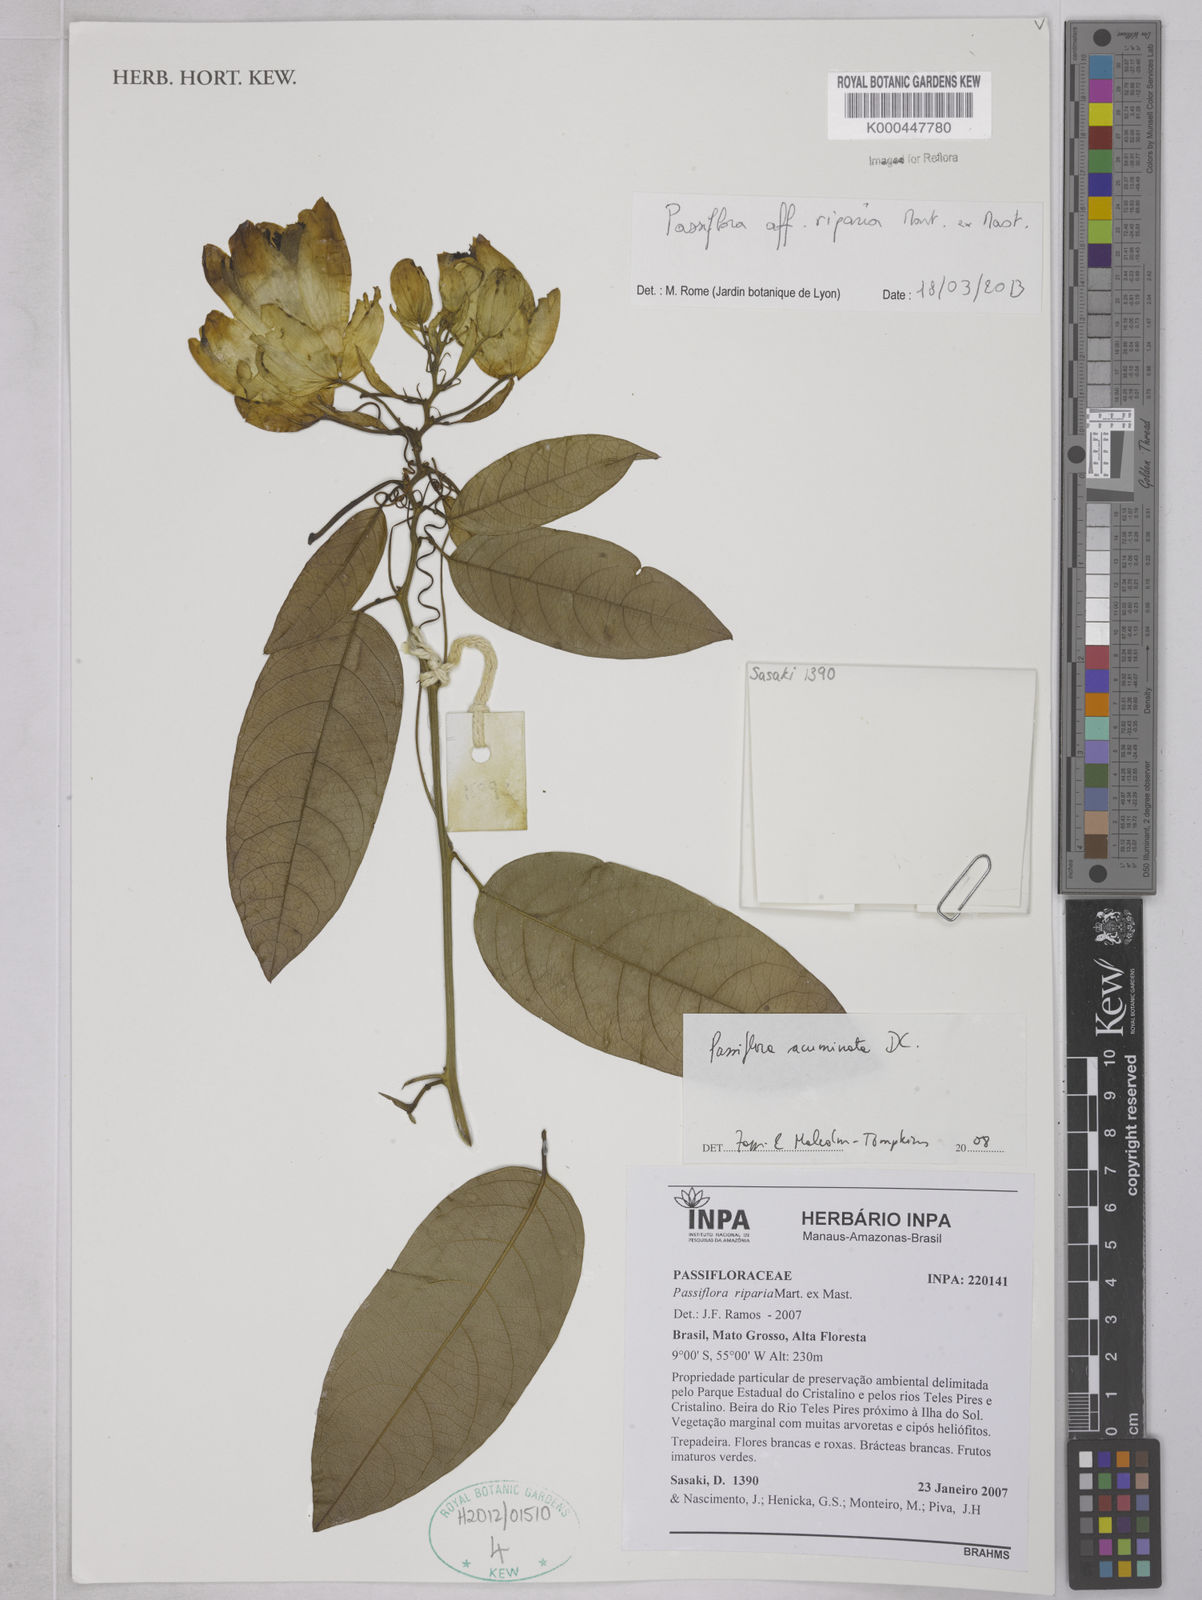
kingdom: Plantae
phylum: Tracheophyta
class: Magnoliopsida
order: Malpighiales
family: Passifloraceae
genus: Passiflora
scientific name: Passiflora acuminata
